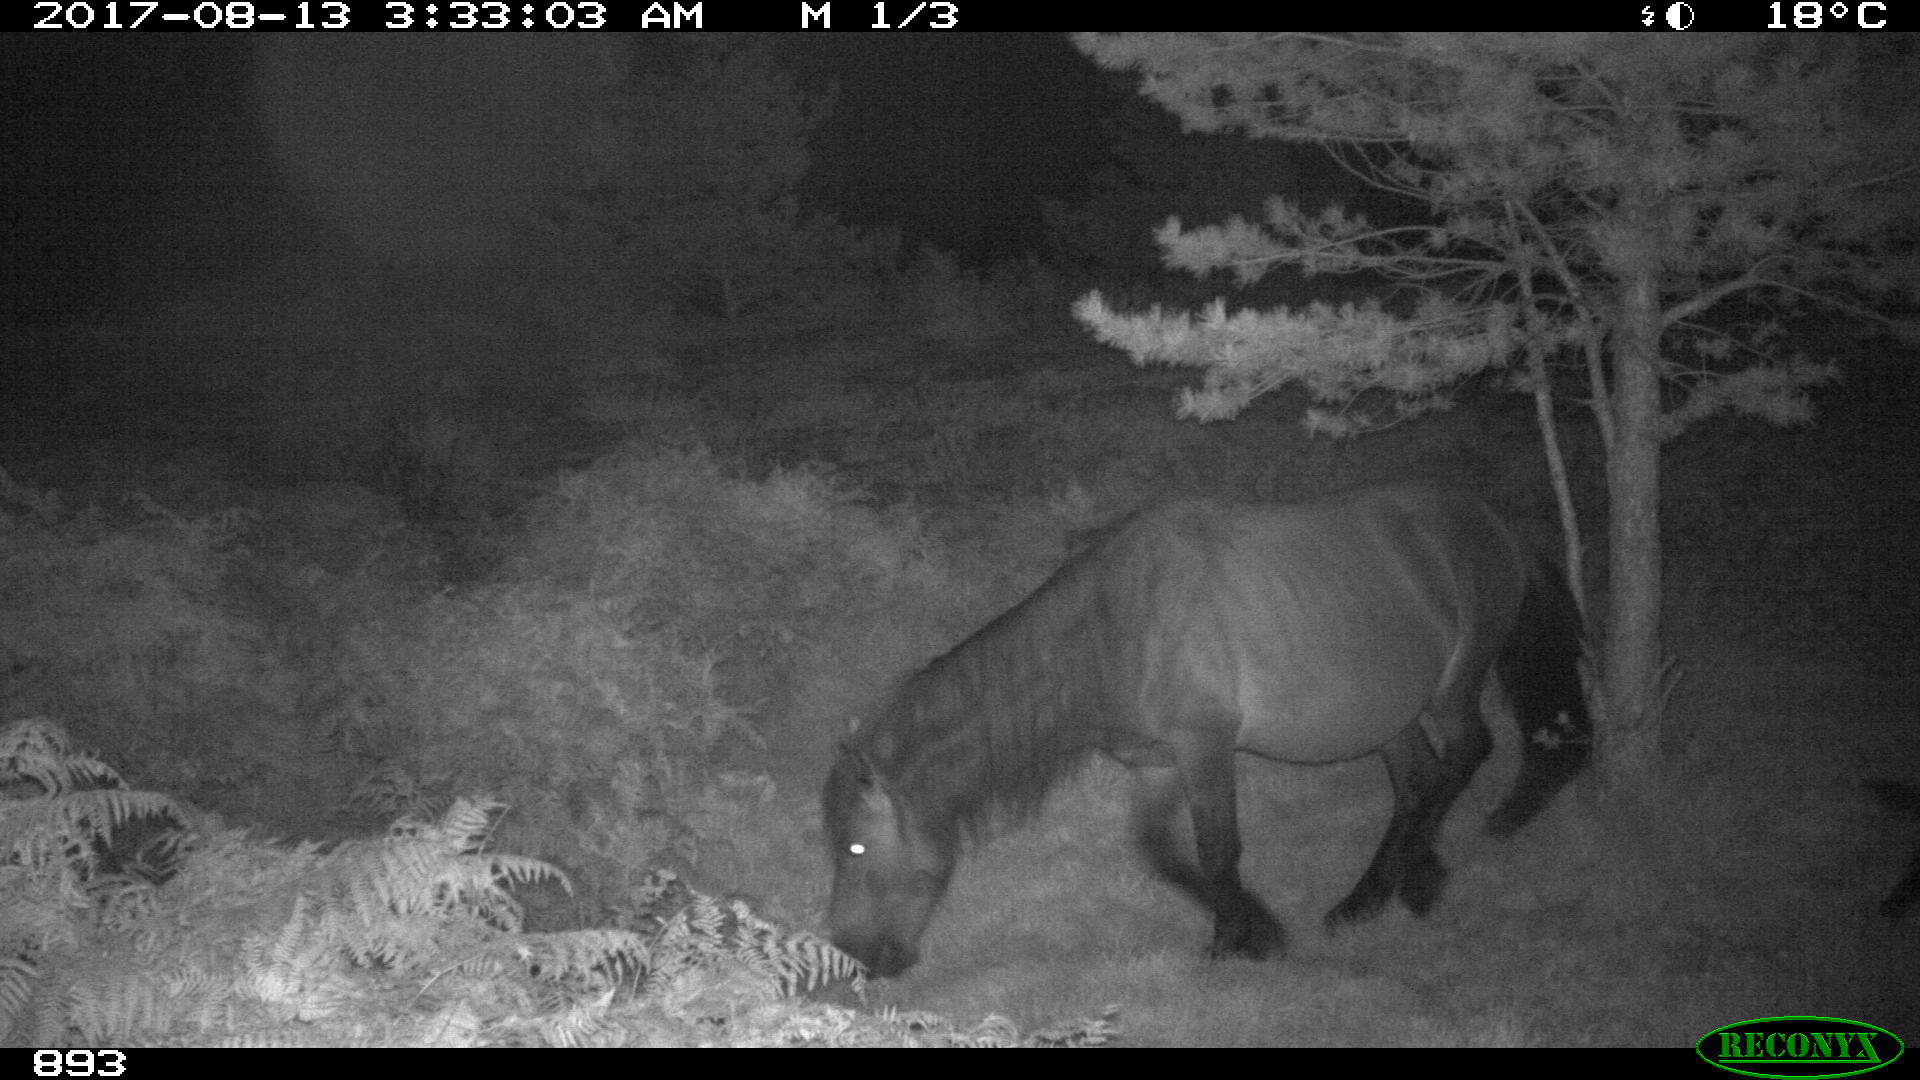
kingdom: Animalia
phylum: Chordata
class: Mammalia
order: Perissodactyla
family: Equidae
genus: Equus
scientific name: Equus caballus
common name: Horse
